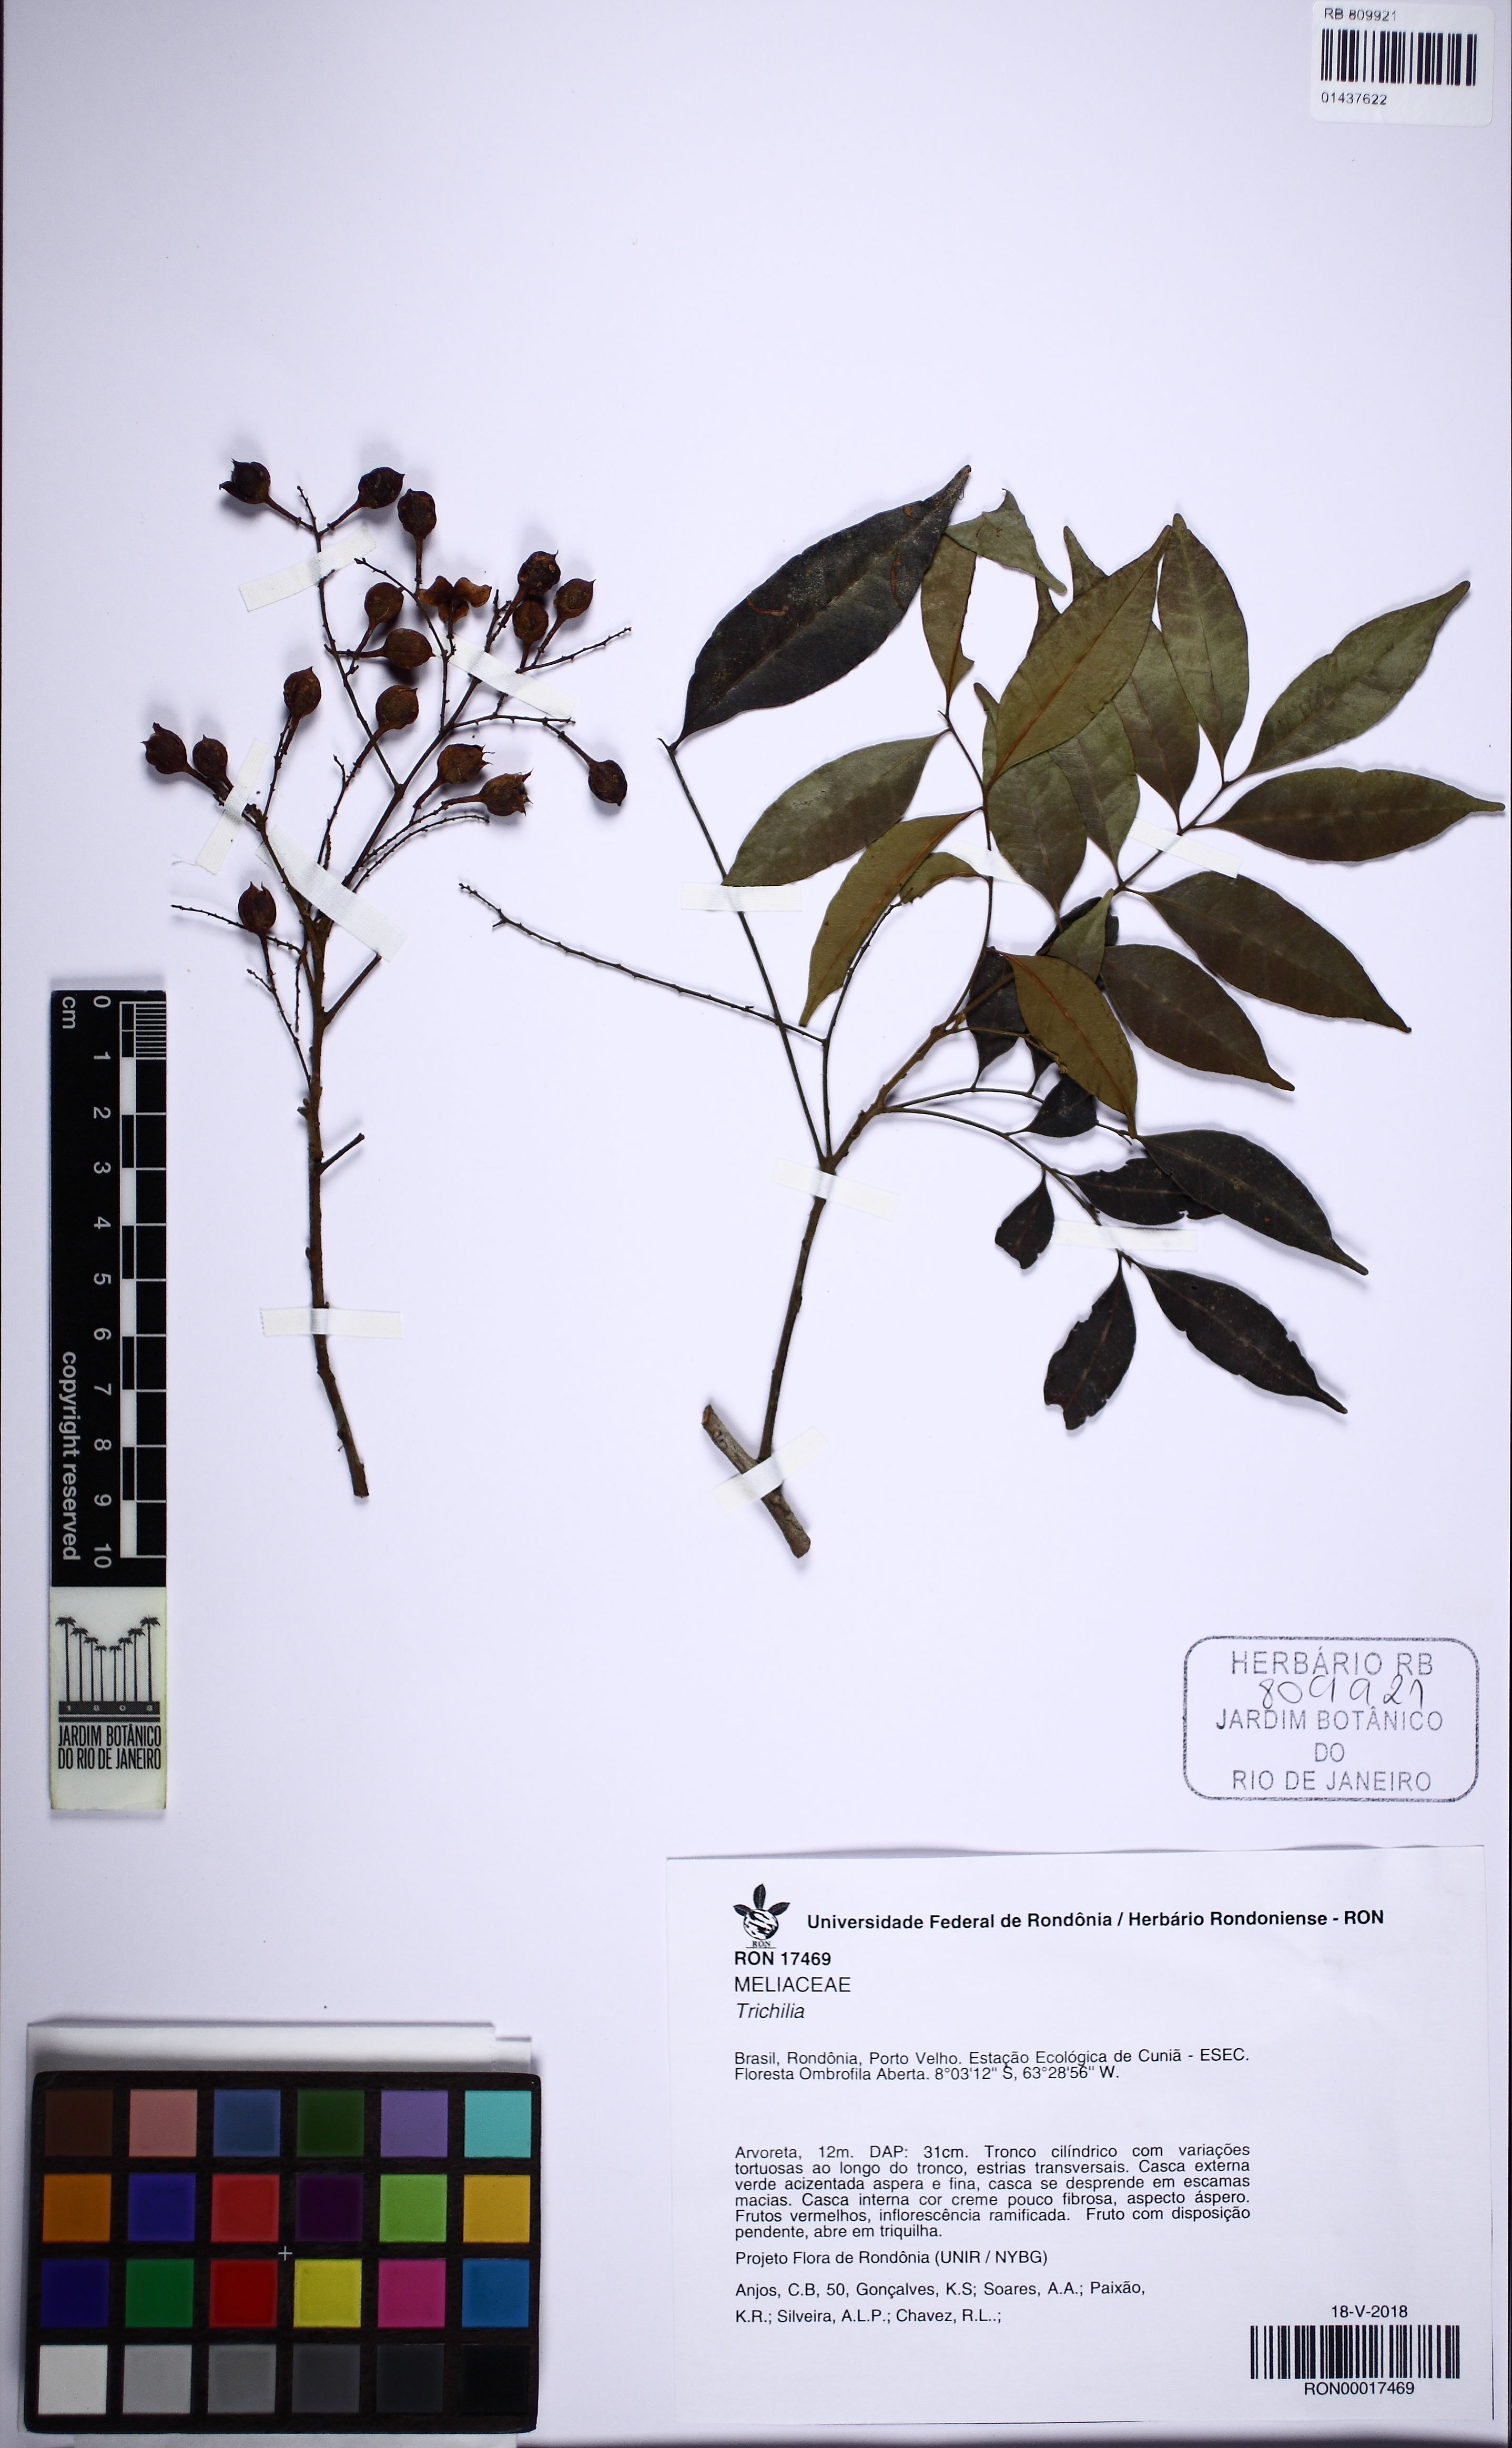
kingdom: Plantae
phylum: Tracheophyta
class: Magnoliopsida
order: Sapindales
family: Meliaceae
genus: Trichilia
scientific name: Trichilia
